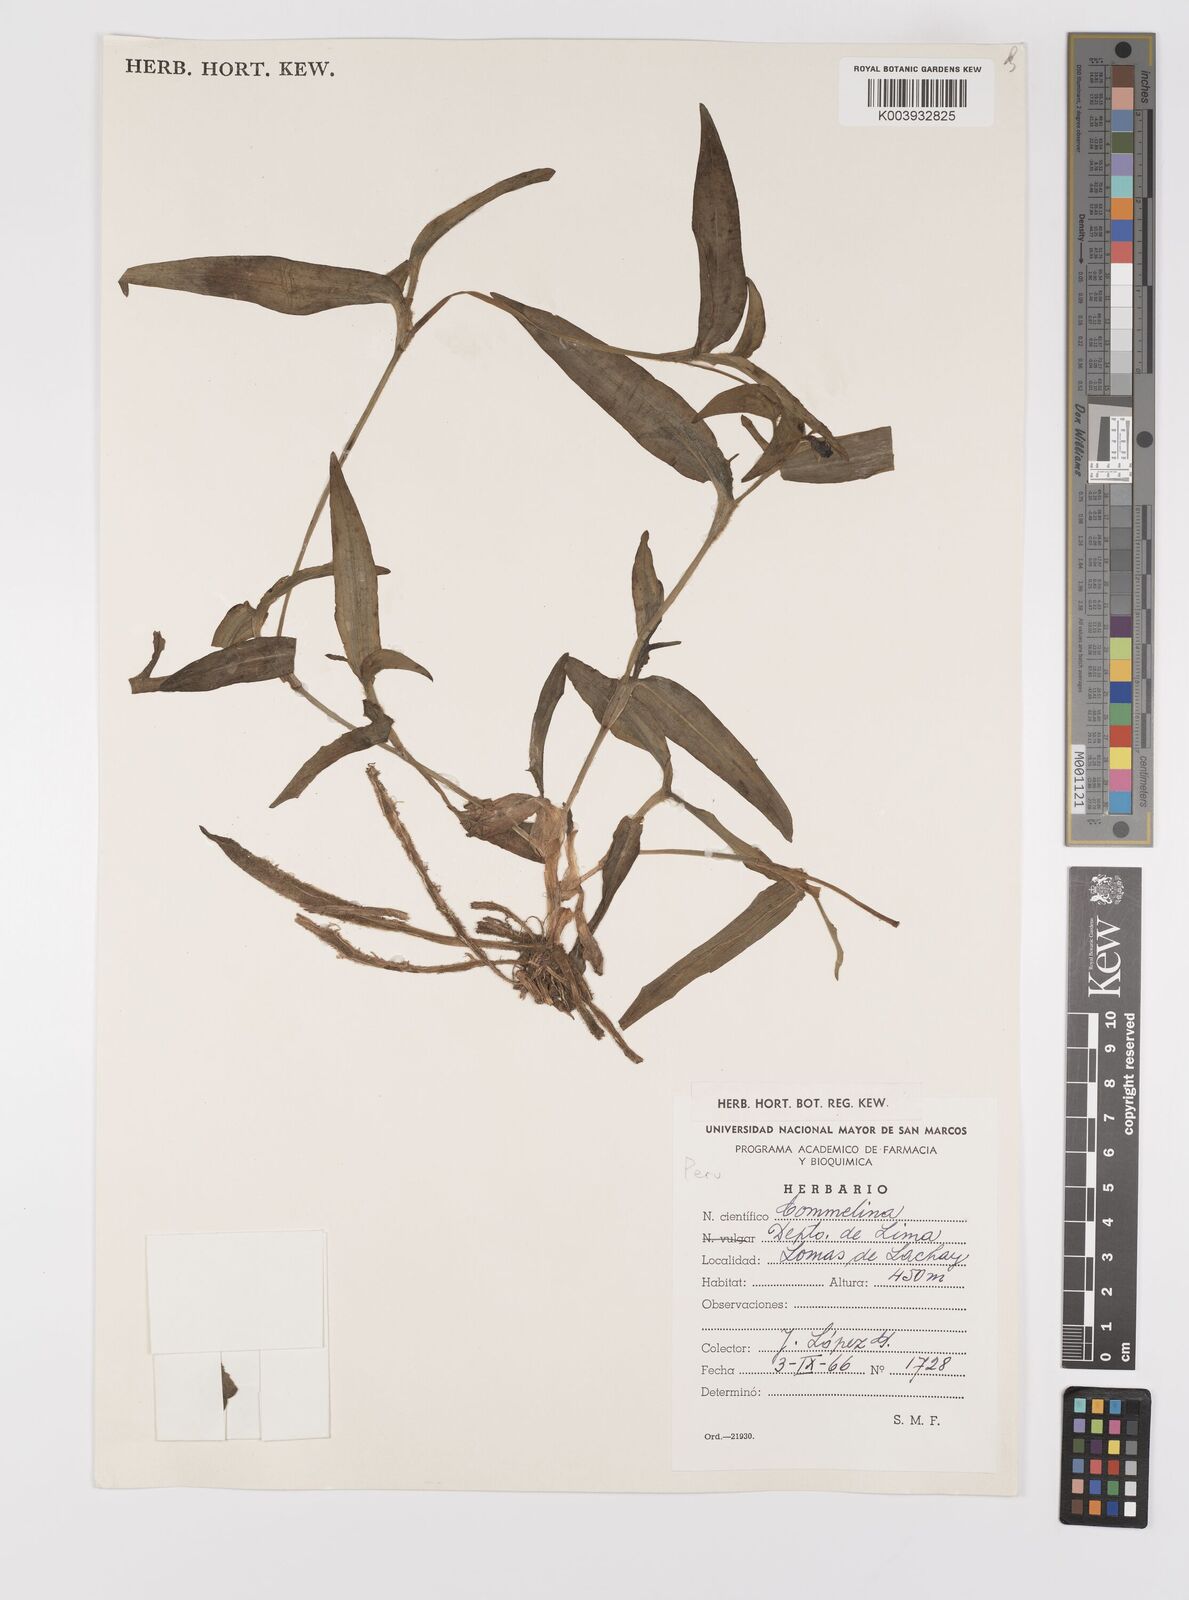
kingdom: Plantae
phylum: Tracheophyta
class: Liliopsida
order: Commelinales
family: Commelinaceae
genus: Commelina
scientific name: Commelina
